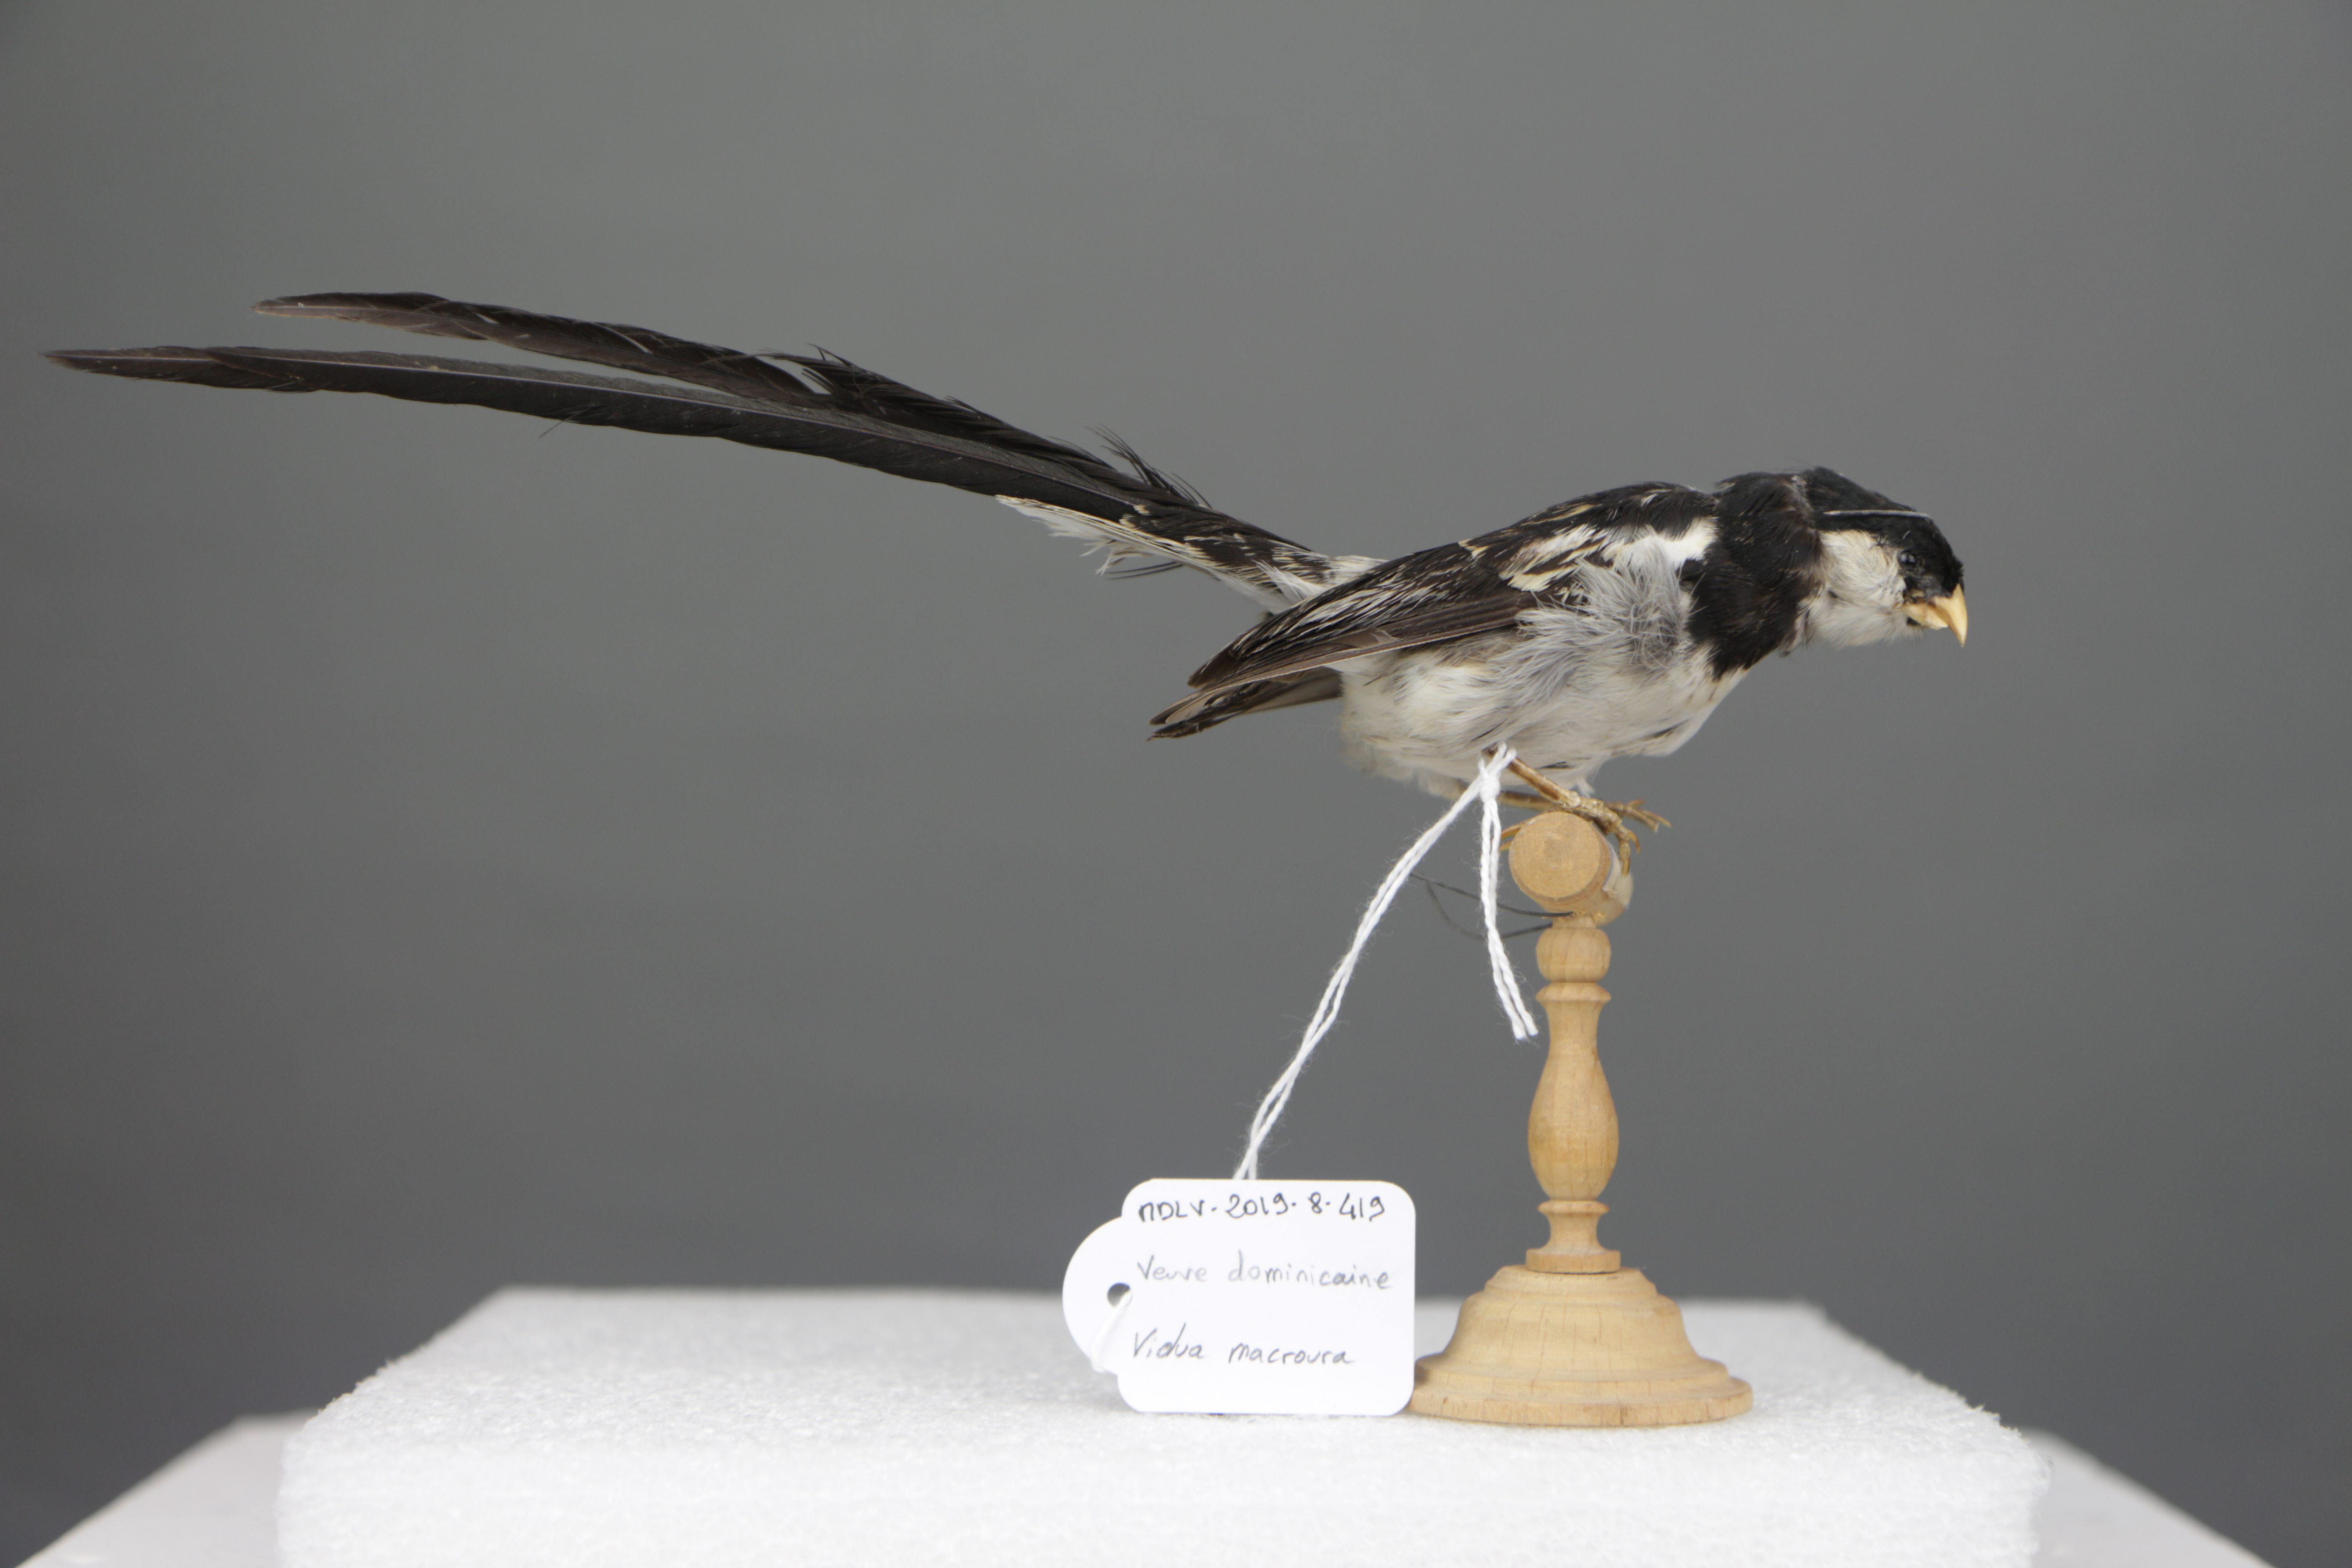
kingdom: Animalia
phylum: Chordata
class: Aves
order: Passeriformes
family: Viduidae
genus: Vidua
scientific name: Vidua macroura
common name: Pin-tailed whydah
